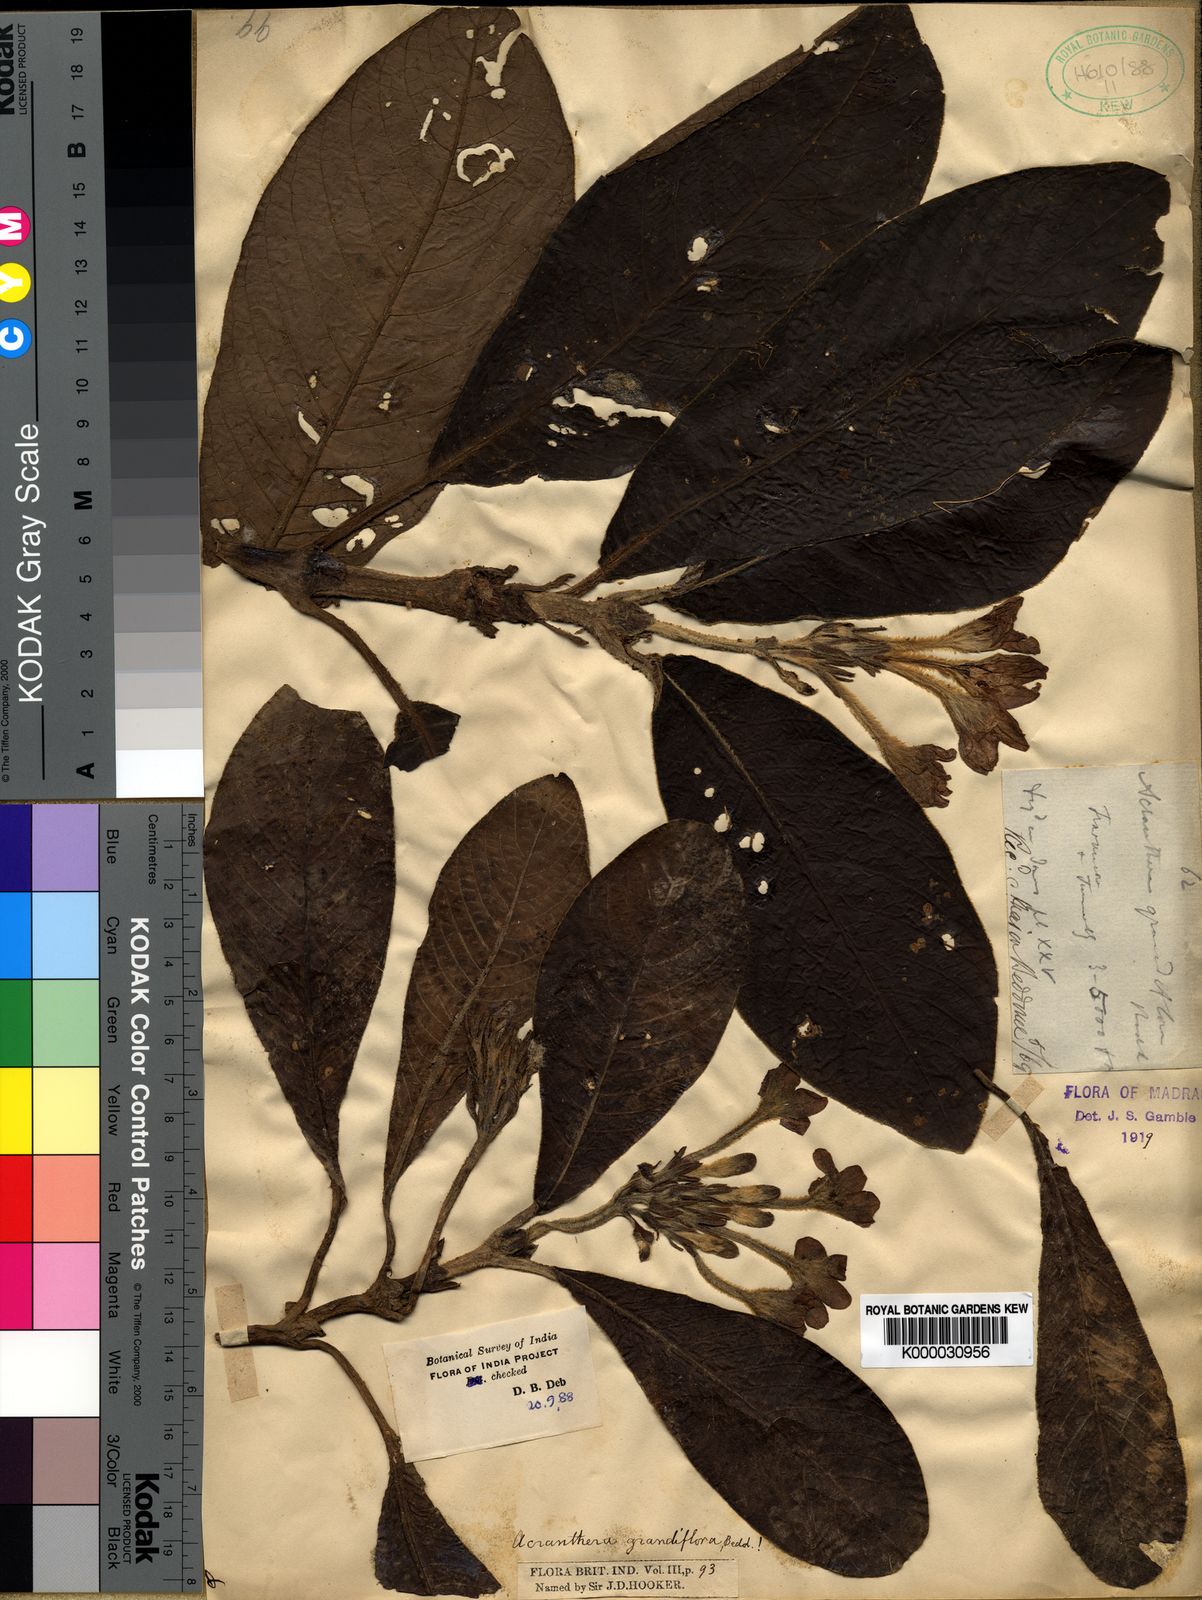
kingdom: Plantae
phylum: Tracheophyta
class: Magnoliopsida
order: Gentianales
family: Rubiaceae
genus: Acranthera
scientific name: Acranthera grandiflora
